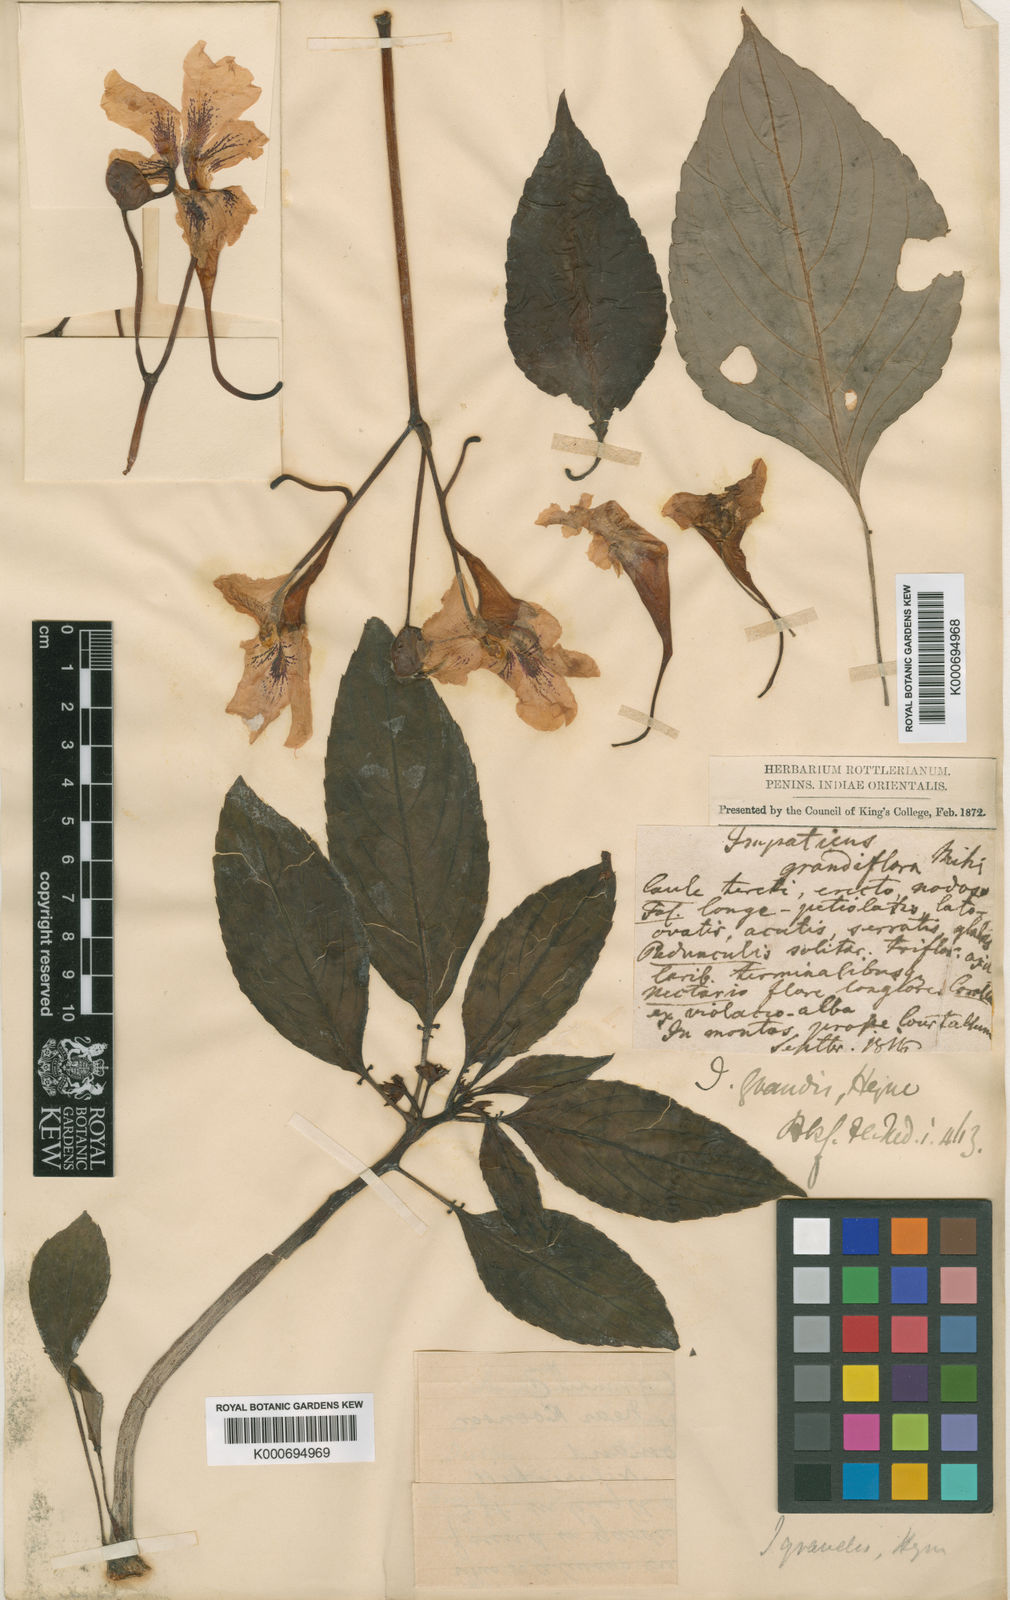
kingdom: Plantae
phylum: Tracheophyta
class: Magnoliopsida
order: Ericales
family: Balsaminaceae
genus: Impatiens
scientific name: Impatiens grandis
